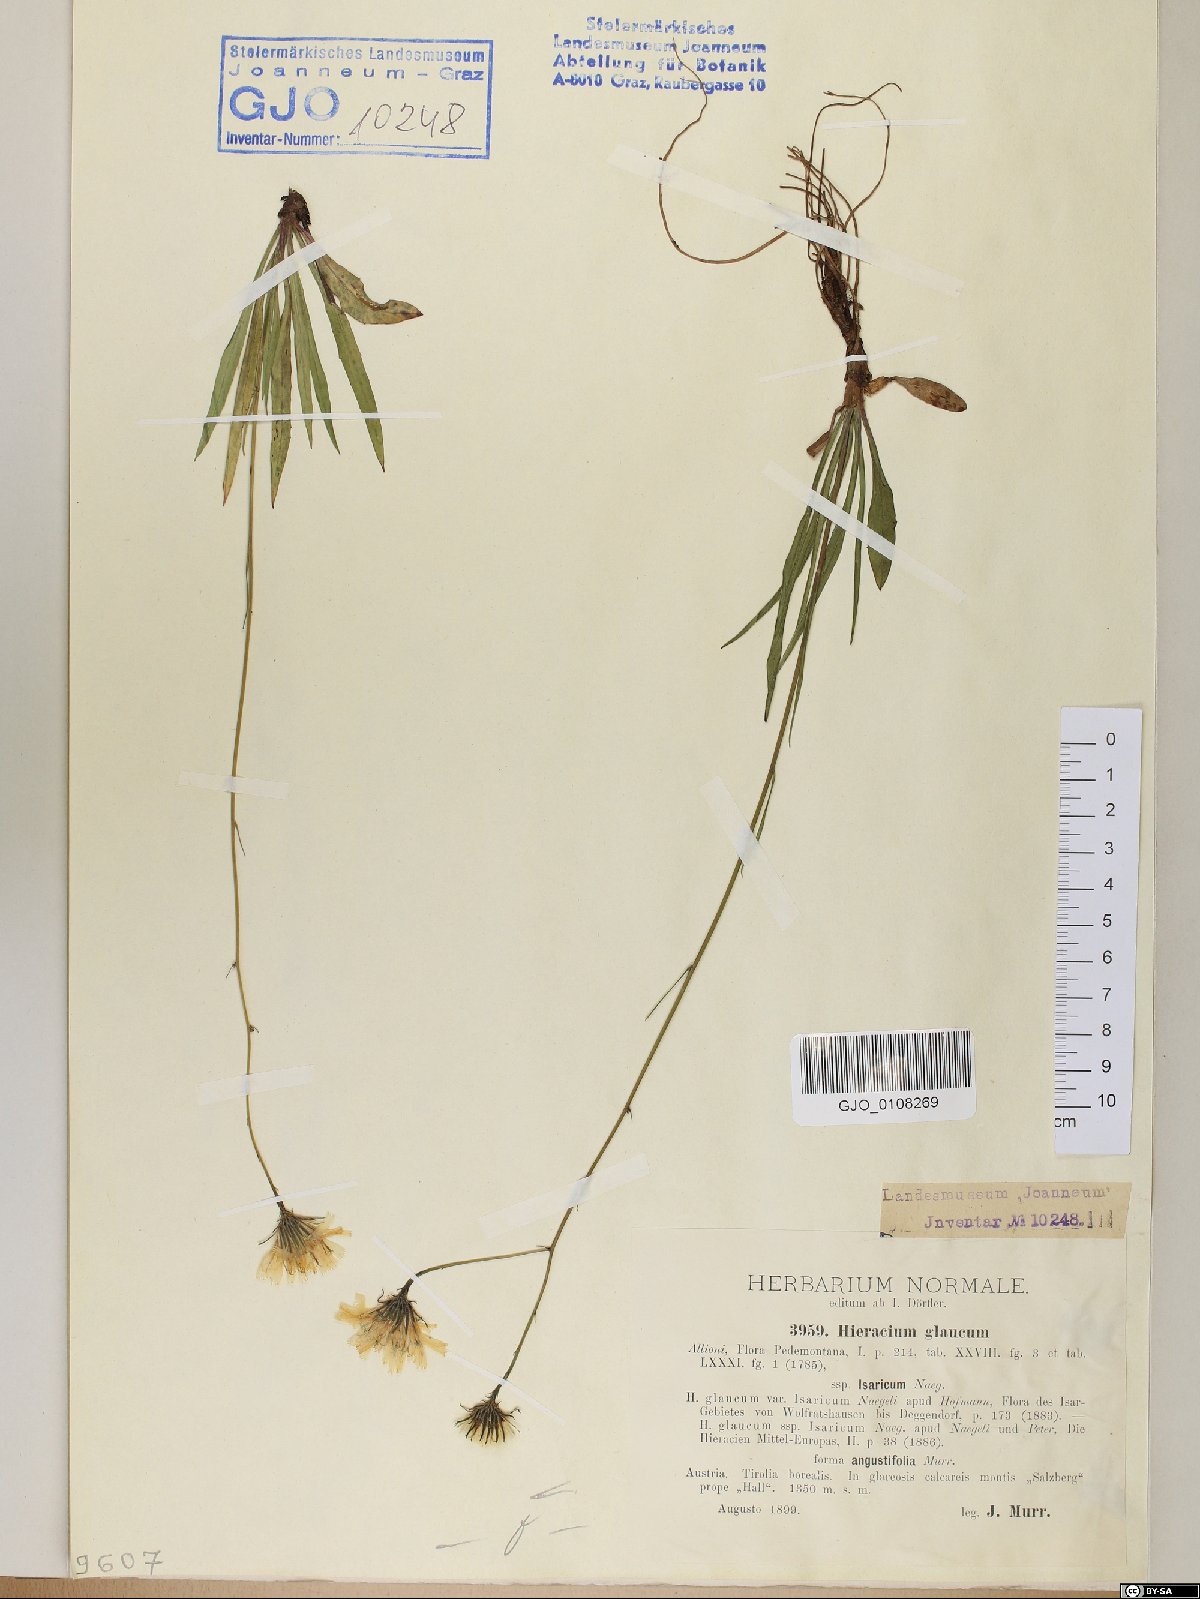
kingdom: Plantae
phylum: Tracheophyta
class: Magnoliopsida
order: Asterales
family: Asteraceae
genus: Hieracium
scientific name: Hieracium glaucum
